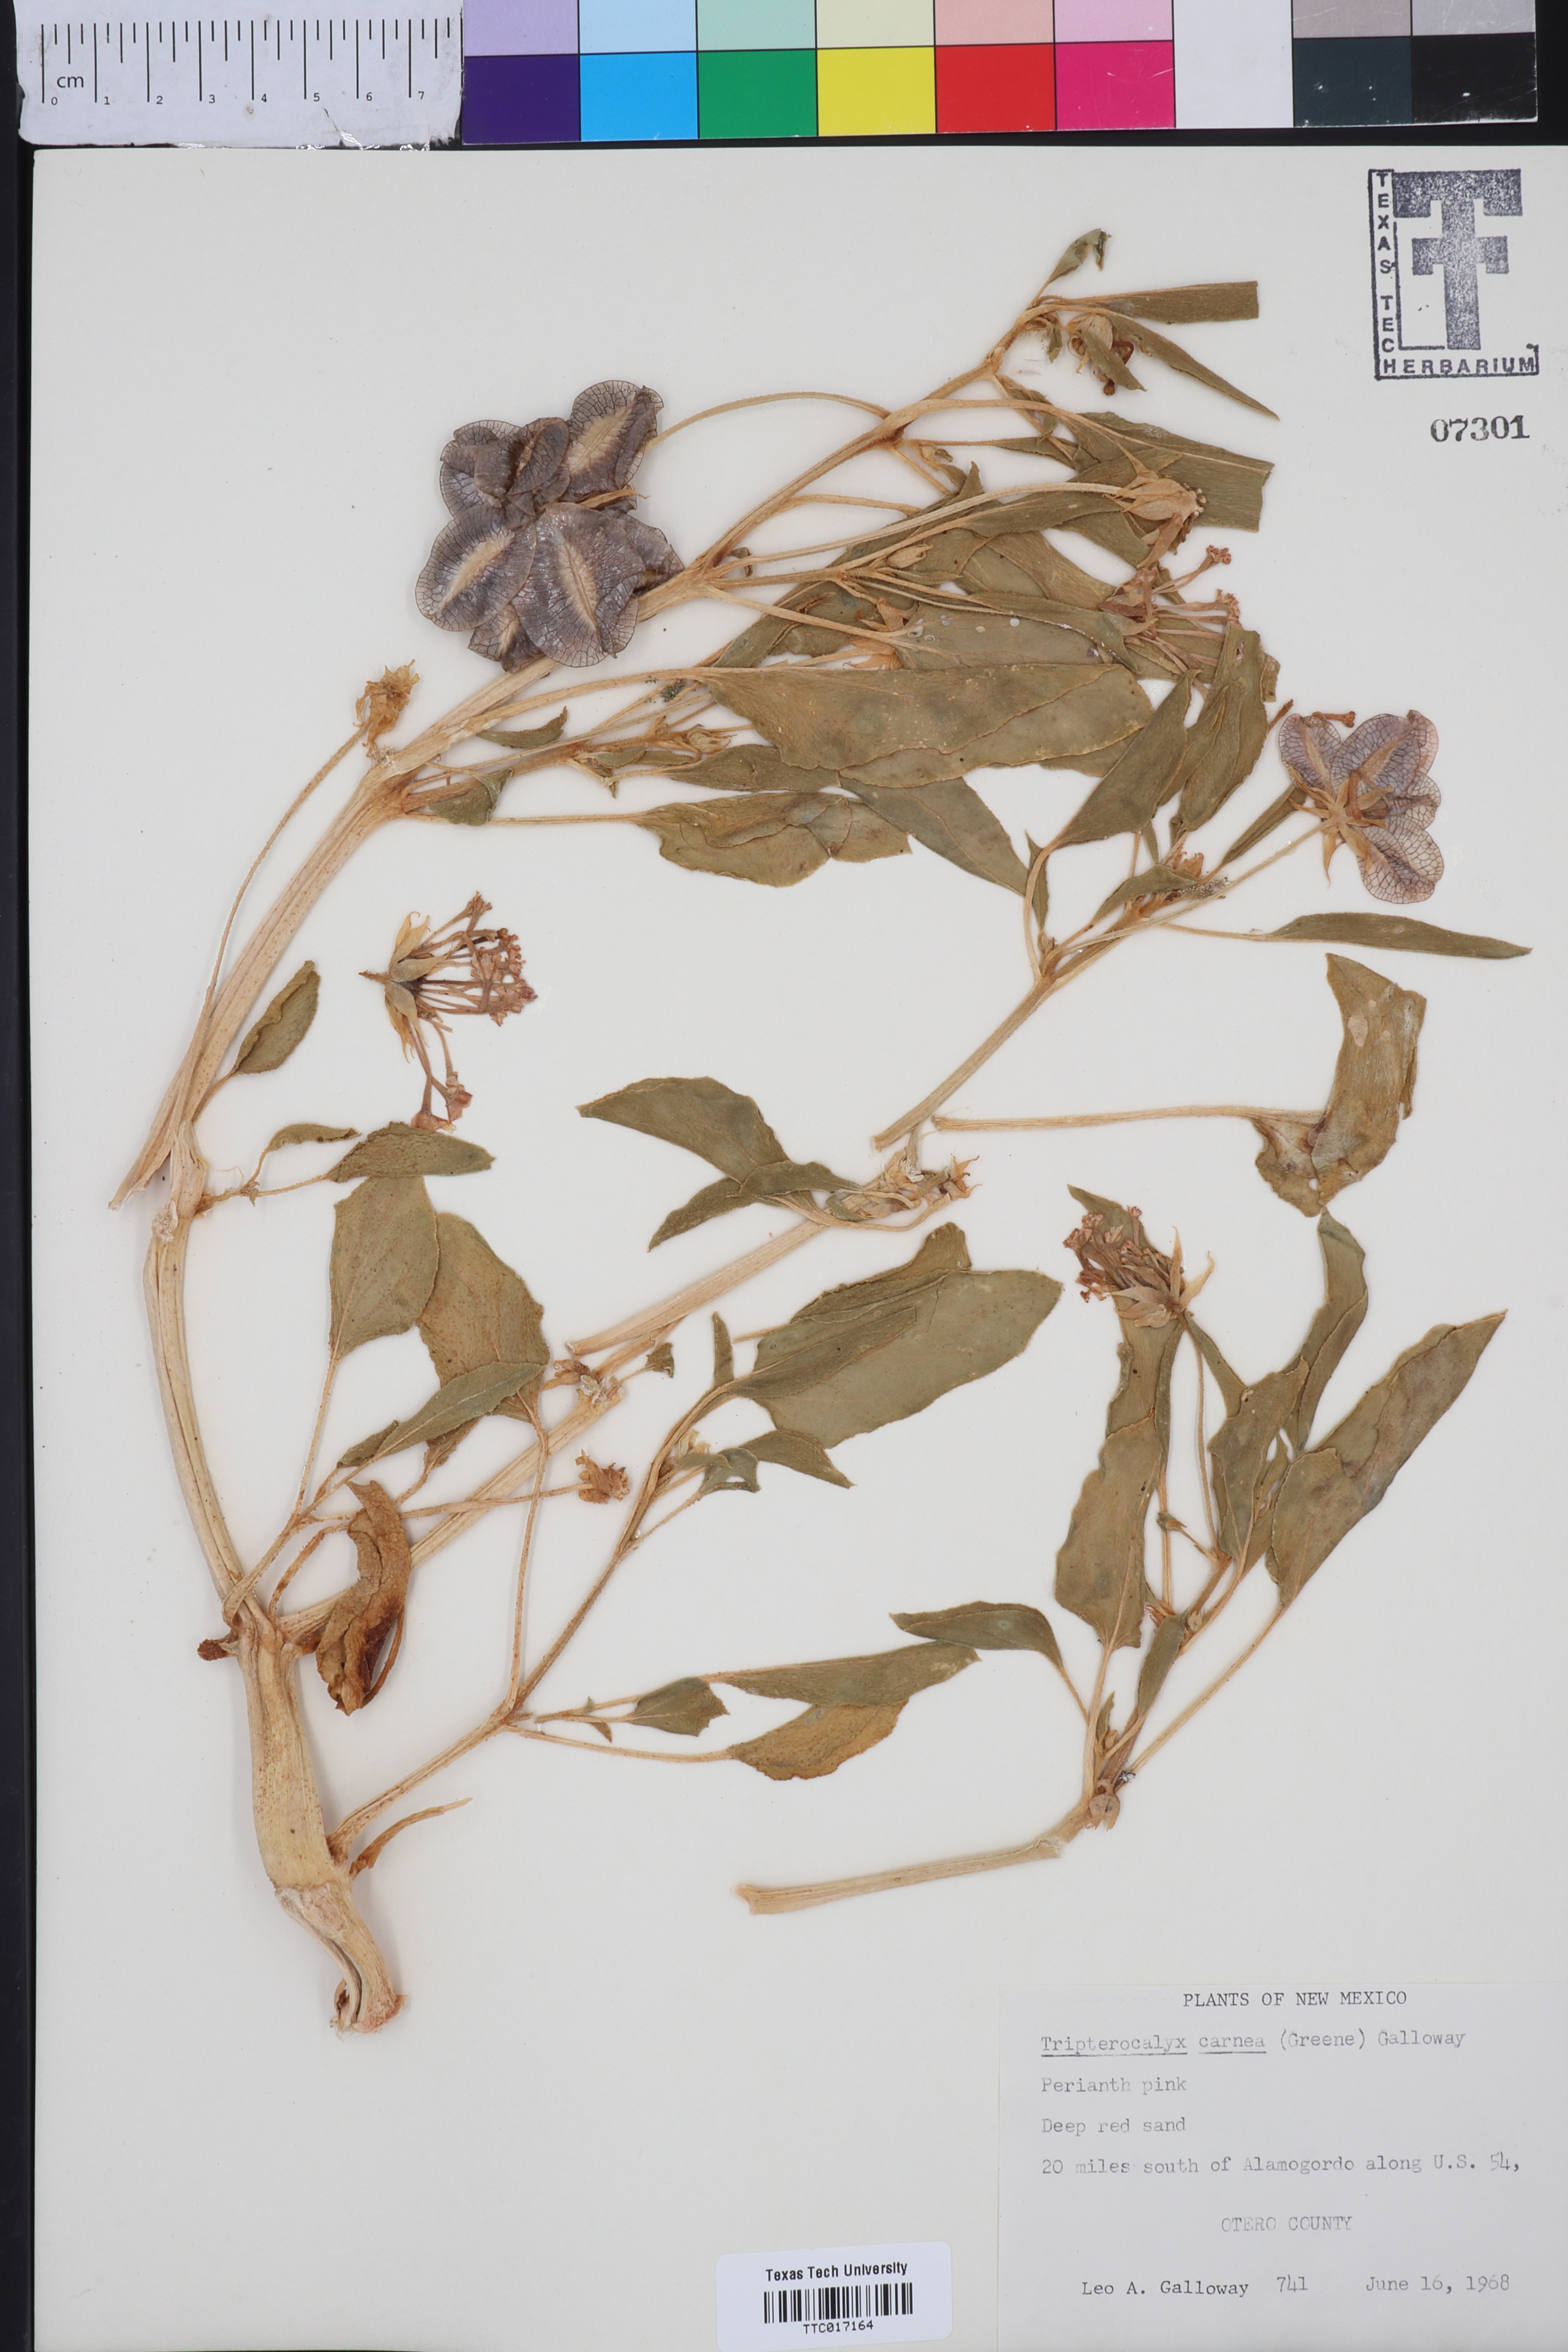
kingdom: Plantae
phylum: Tracheophyta
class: Magnoliopsida
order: Caryophyllales
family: Nyctaginaceae
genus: Tripterocalyx
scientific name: Tripterocalyx carneus
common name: Winged sandpuffs
